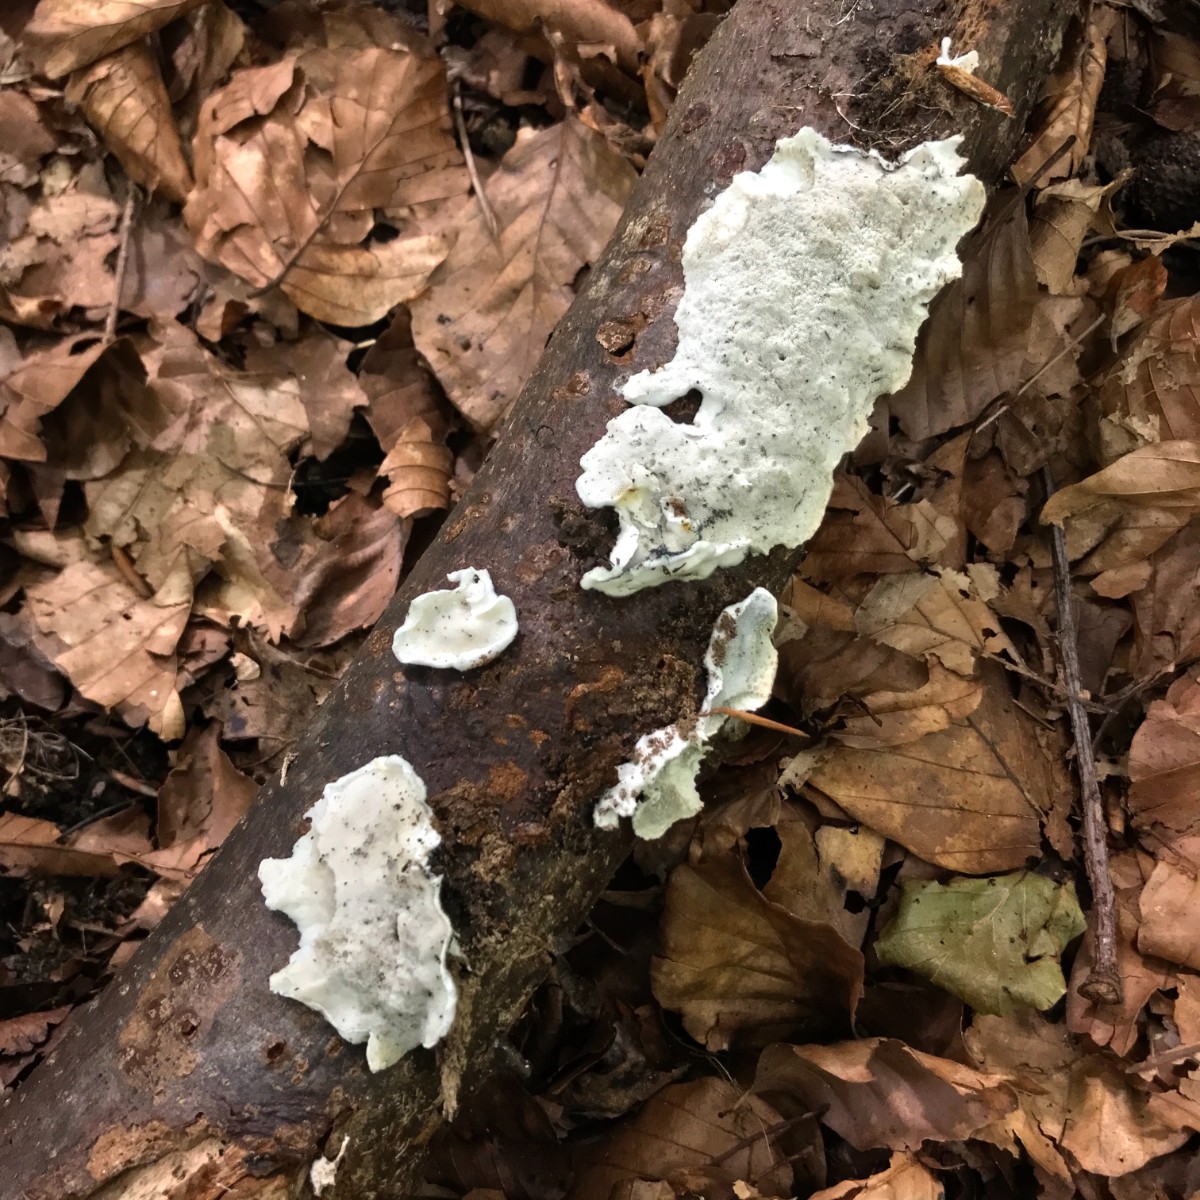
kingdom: Fungi
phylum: Basidiomycota
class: Agaricomycetes
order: Polyporales
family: Incrustoporiaceae
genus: Skeletocutis
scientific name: Skeletocutis nemoralis
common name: stor krystalporesvamp
